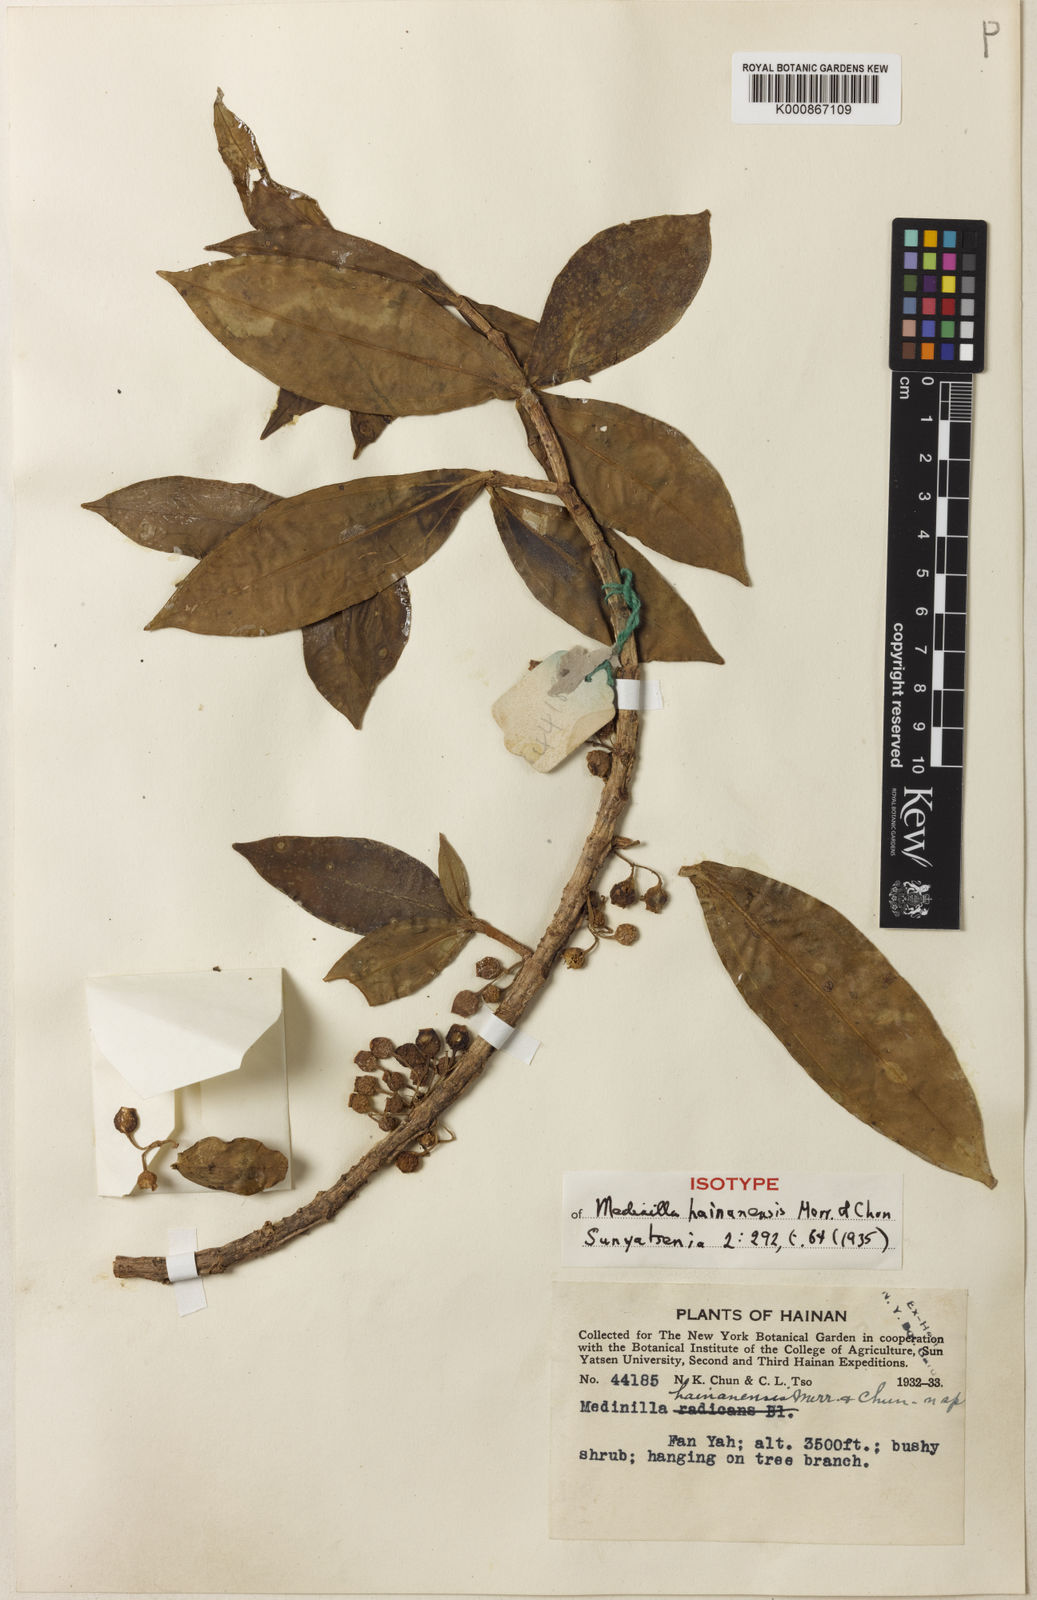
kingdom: Plantae
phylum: Tracheophyta
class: Magnoliopsida
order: Myrtales
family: Melastomataceae
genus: Medinilla
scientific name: Medinilla rubicunda
